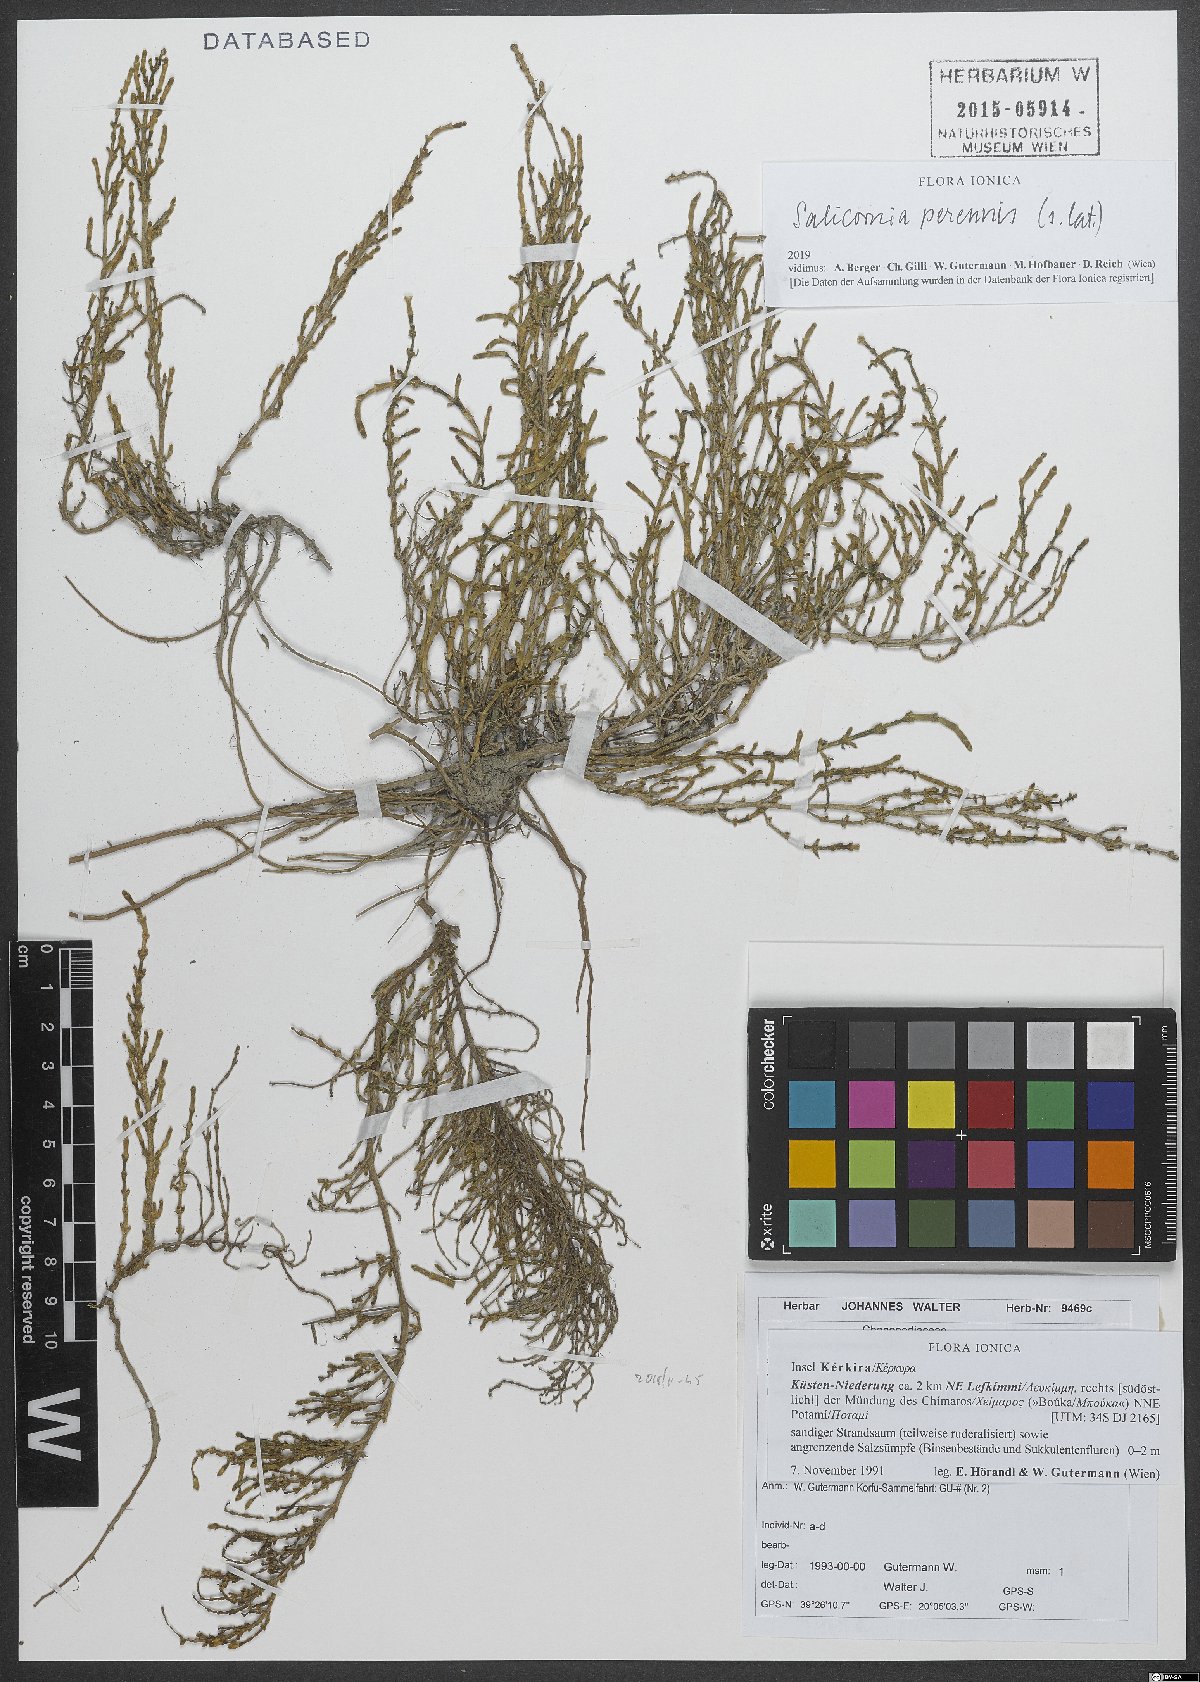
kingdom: Plantae
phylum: Tracheophyta
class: Magnoliopsida
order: Caryophyllales
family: Amaranthaceae
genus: Salicornia
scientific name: Salicornia perennis
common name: Chicken claws
